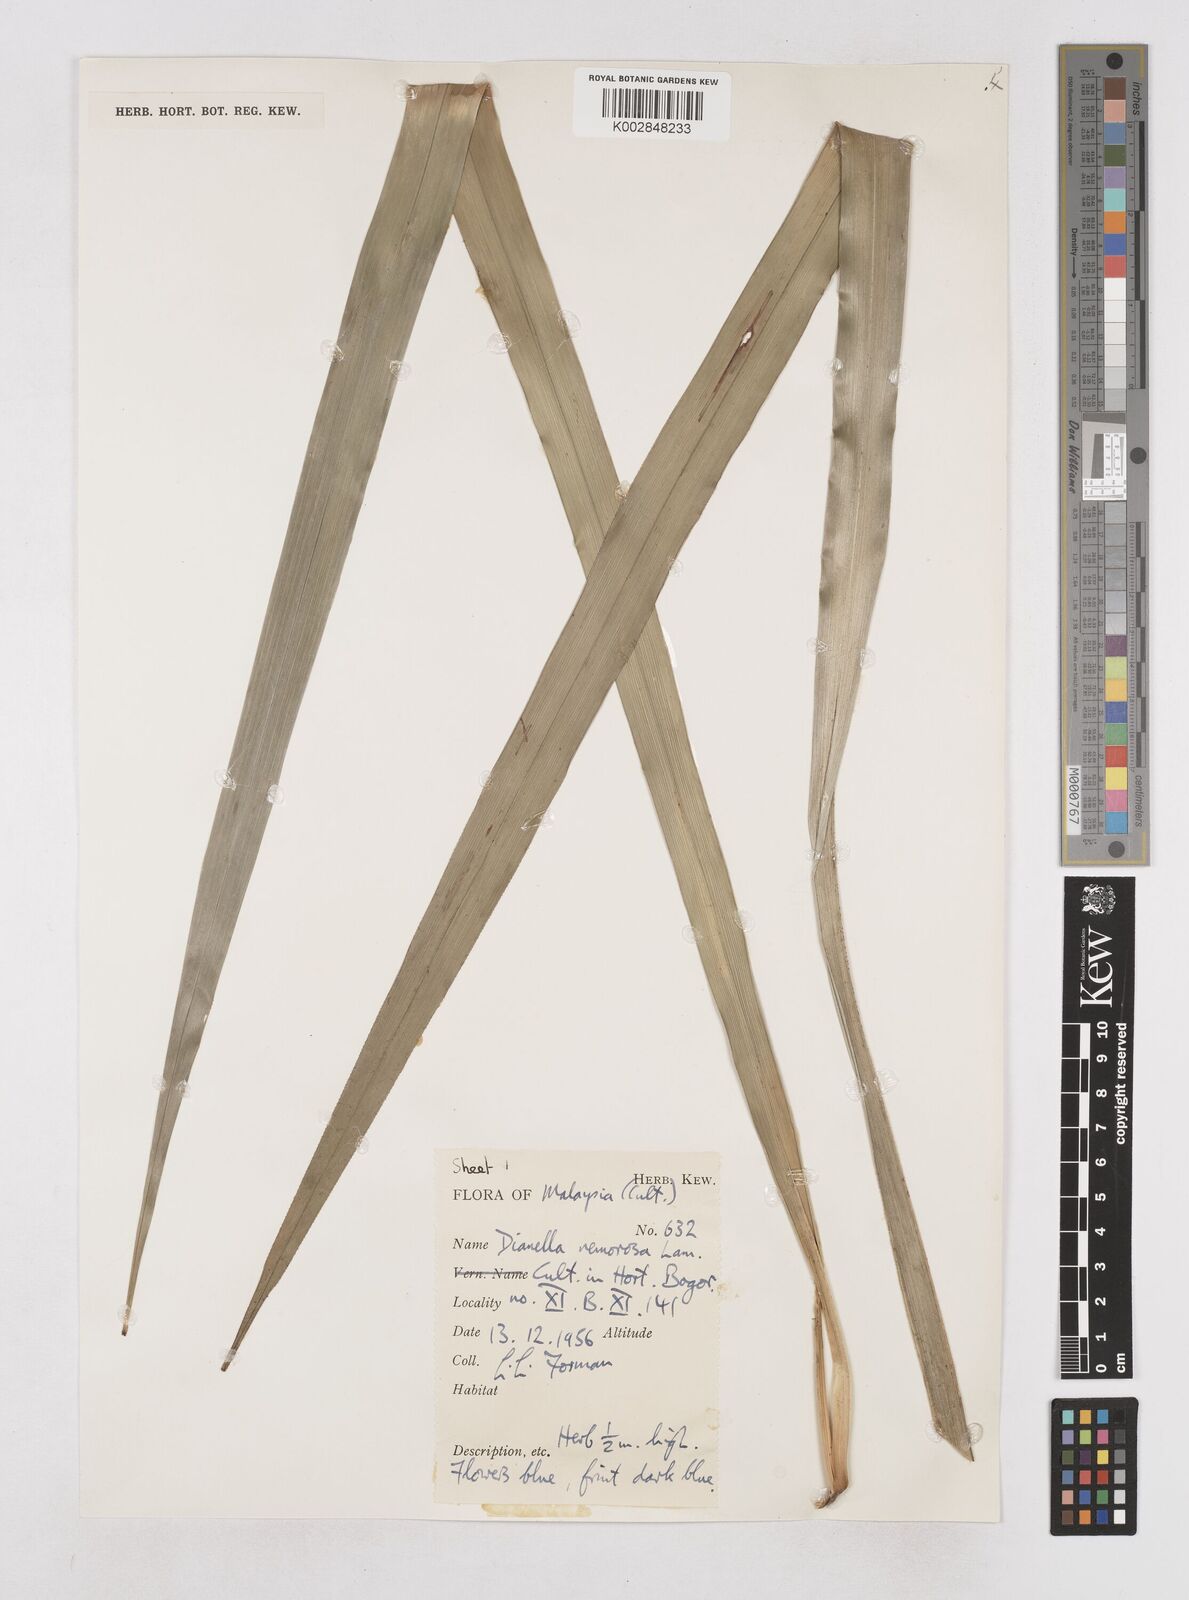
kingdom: Plantae
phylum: Tracheophyta
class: Liliopsida
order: Asparagales
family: Asphodelaceae
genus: Dianella
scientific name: Dianella ensifolia
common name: New zealand lilyplant
